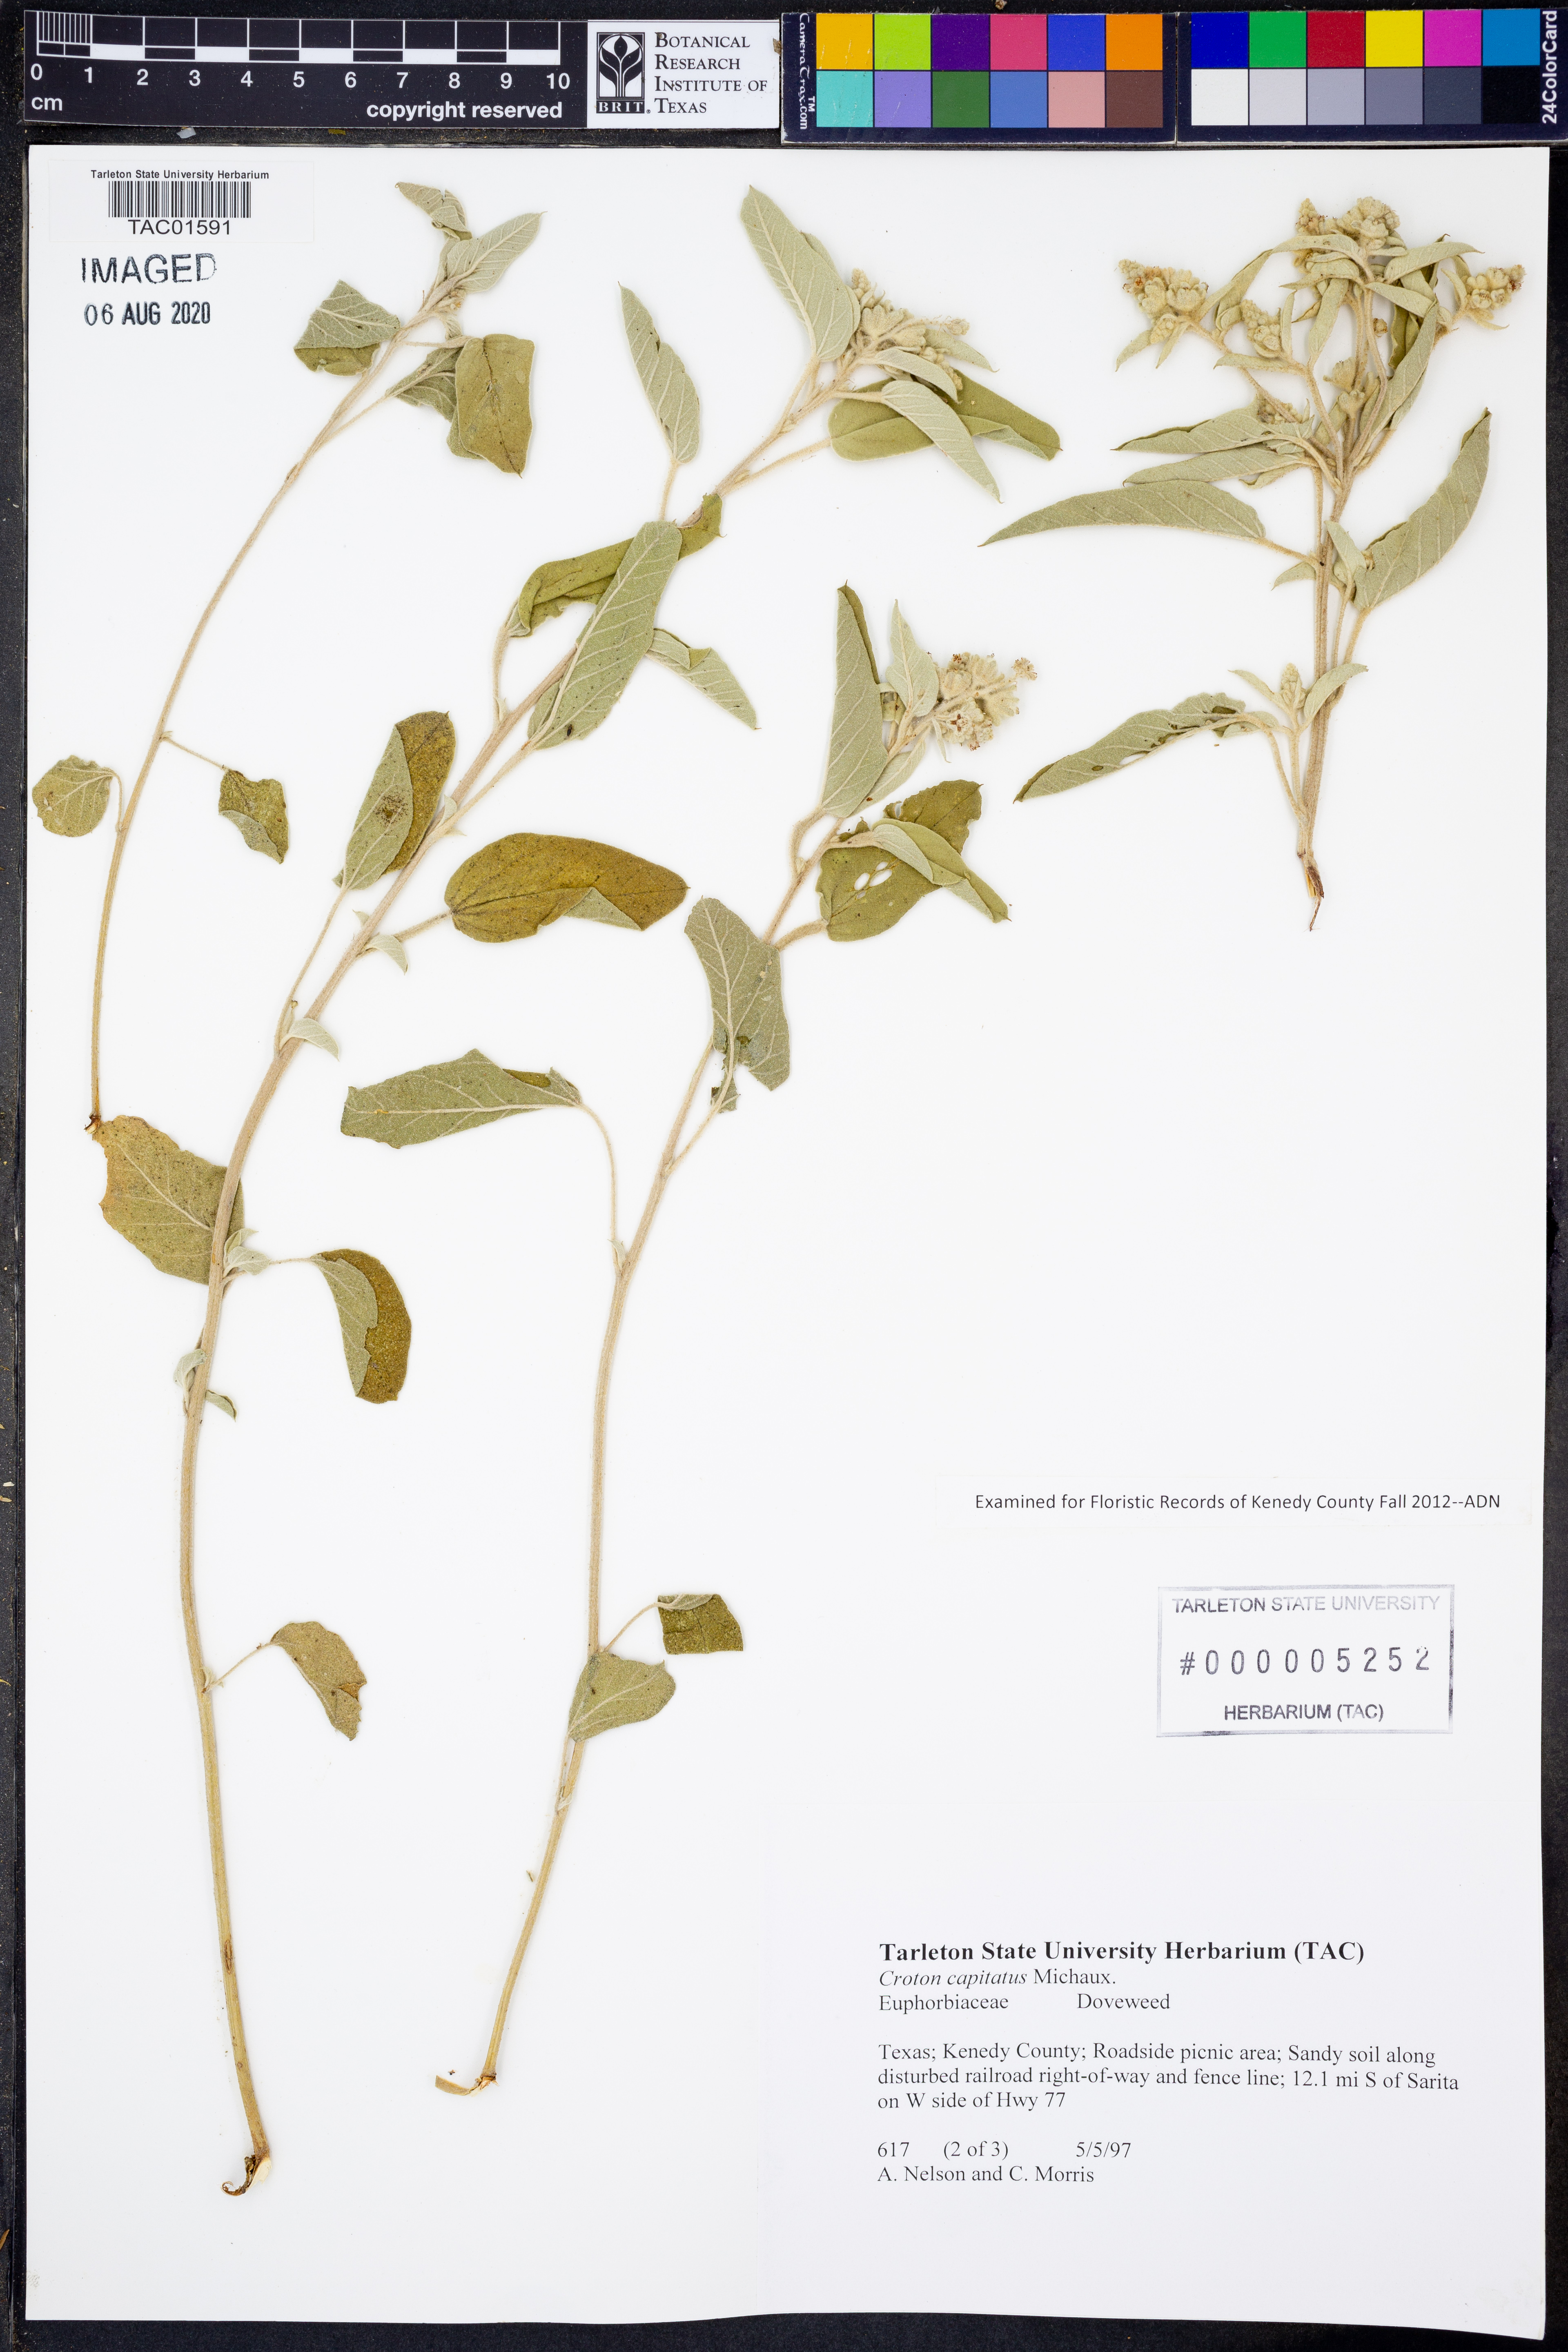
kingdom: Plantae
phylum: Tracheophyta
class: Magnoliopsida
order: Malpighiales
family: Euphorbiaceae
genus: Croton
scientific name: Croton capitatus
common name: Woolly croton
